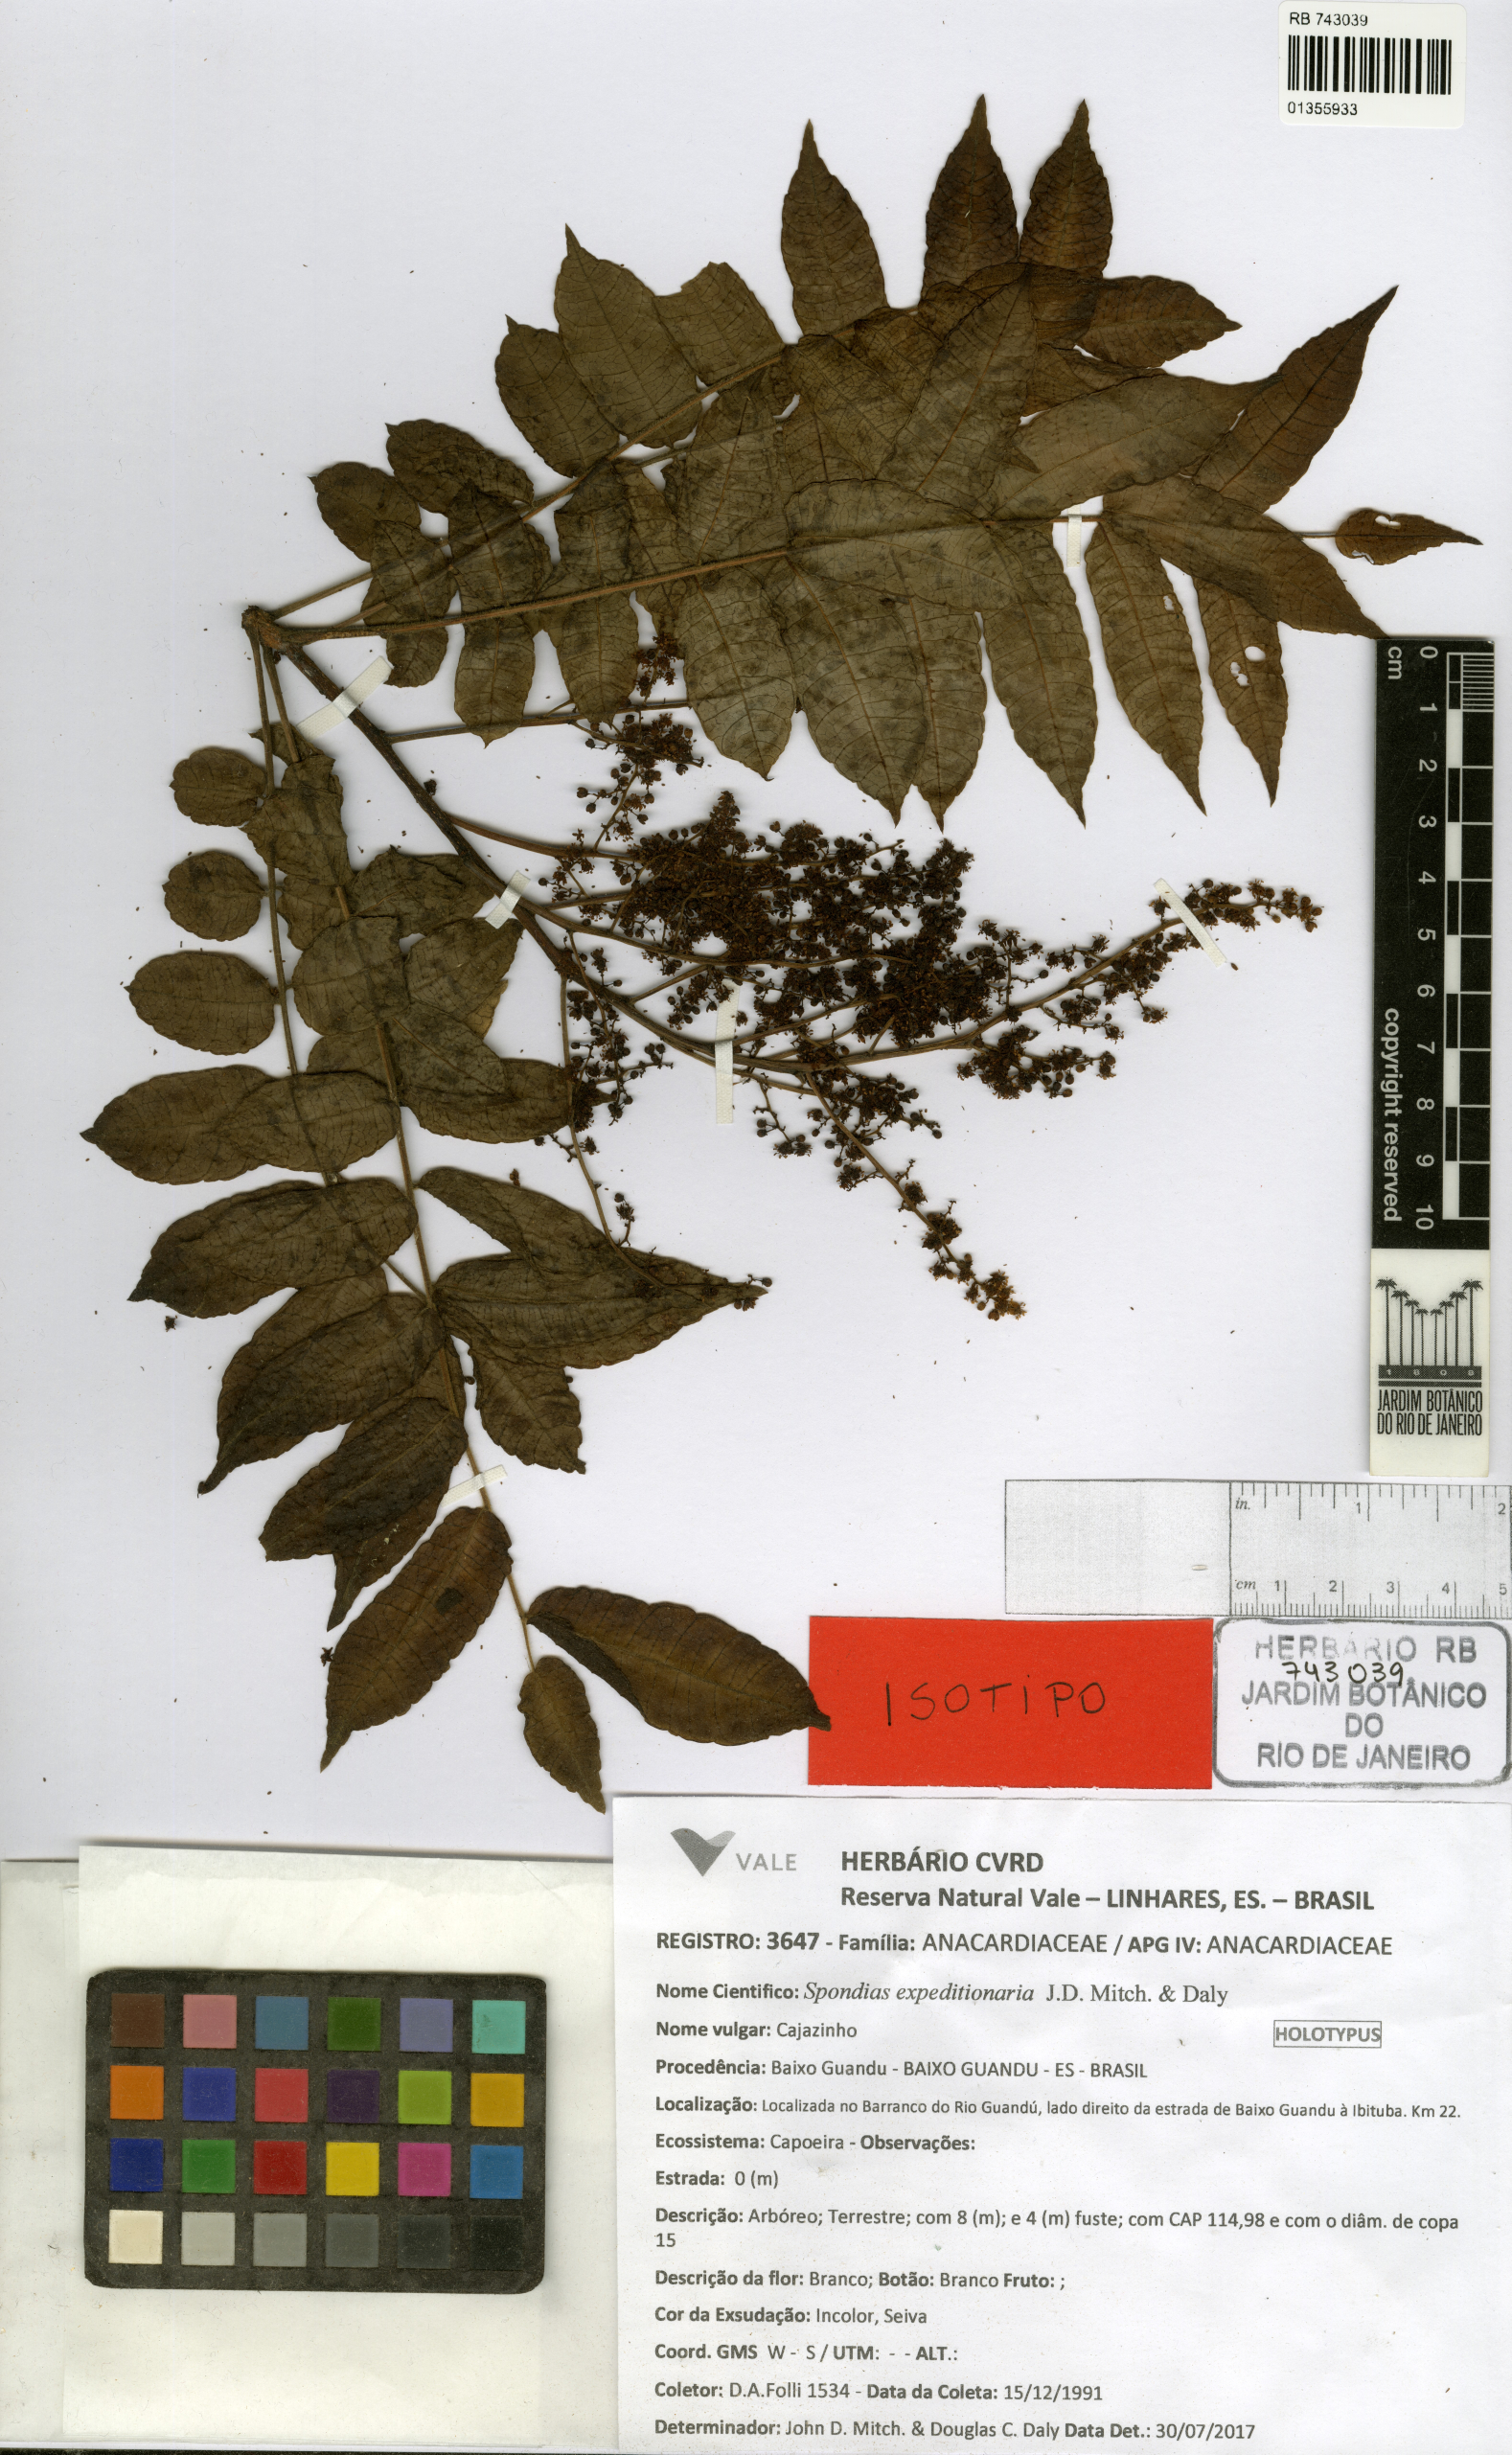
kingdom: Plantae
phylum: Tracheophyta
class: Magnoliopsida
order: Sapindales
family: Anacardiaceae
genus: Spondias
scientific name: Spondias expeditionaria
